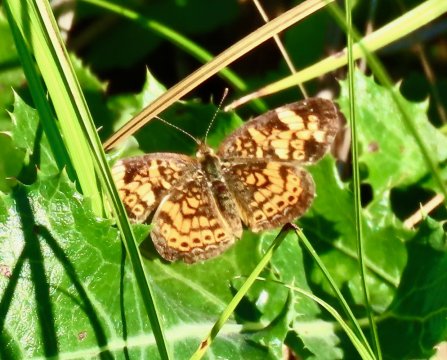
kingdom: Animalia
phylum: Arthropoda
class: Insecta
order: Lepidoptera
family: Nymphalidae
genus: Phyciodes
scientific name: Phyciodes tharos
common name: Pearl Crescent
